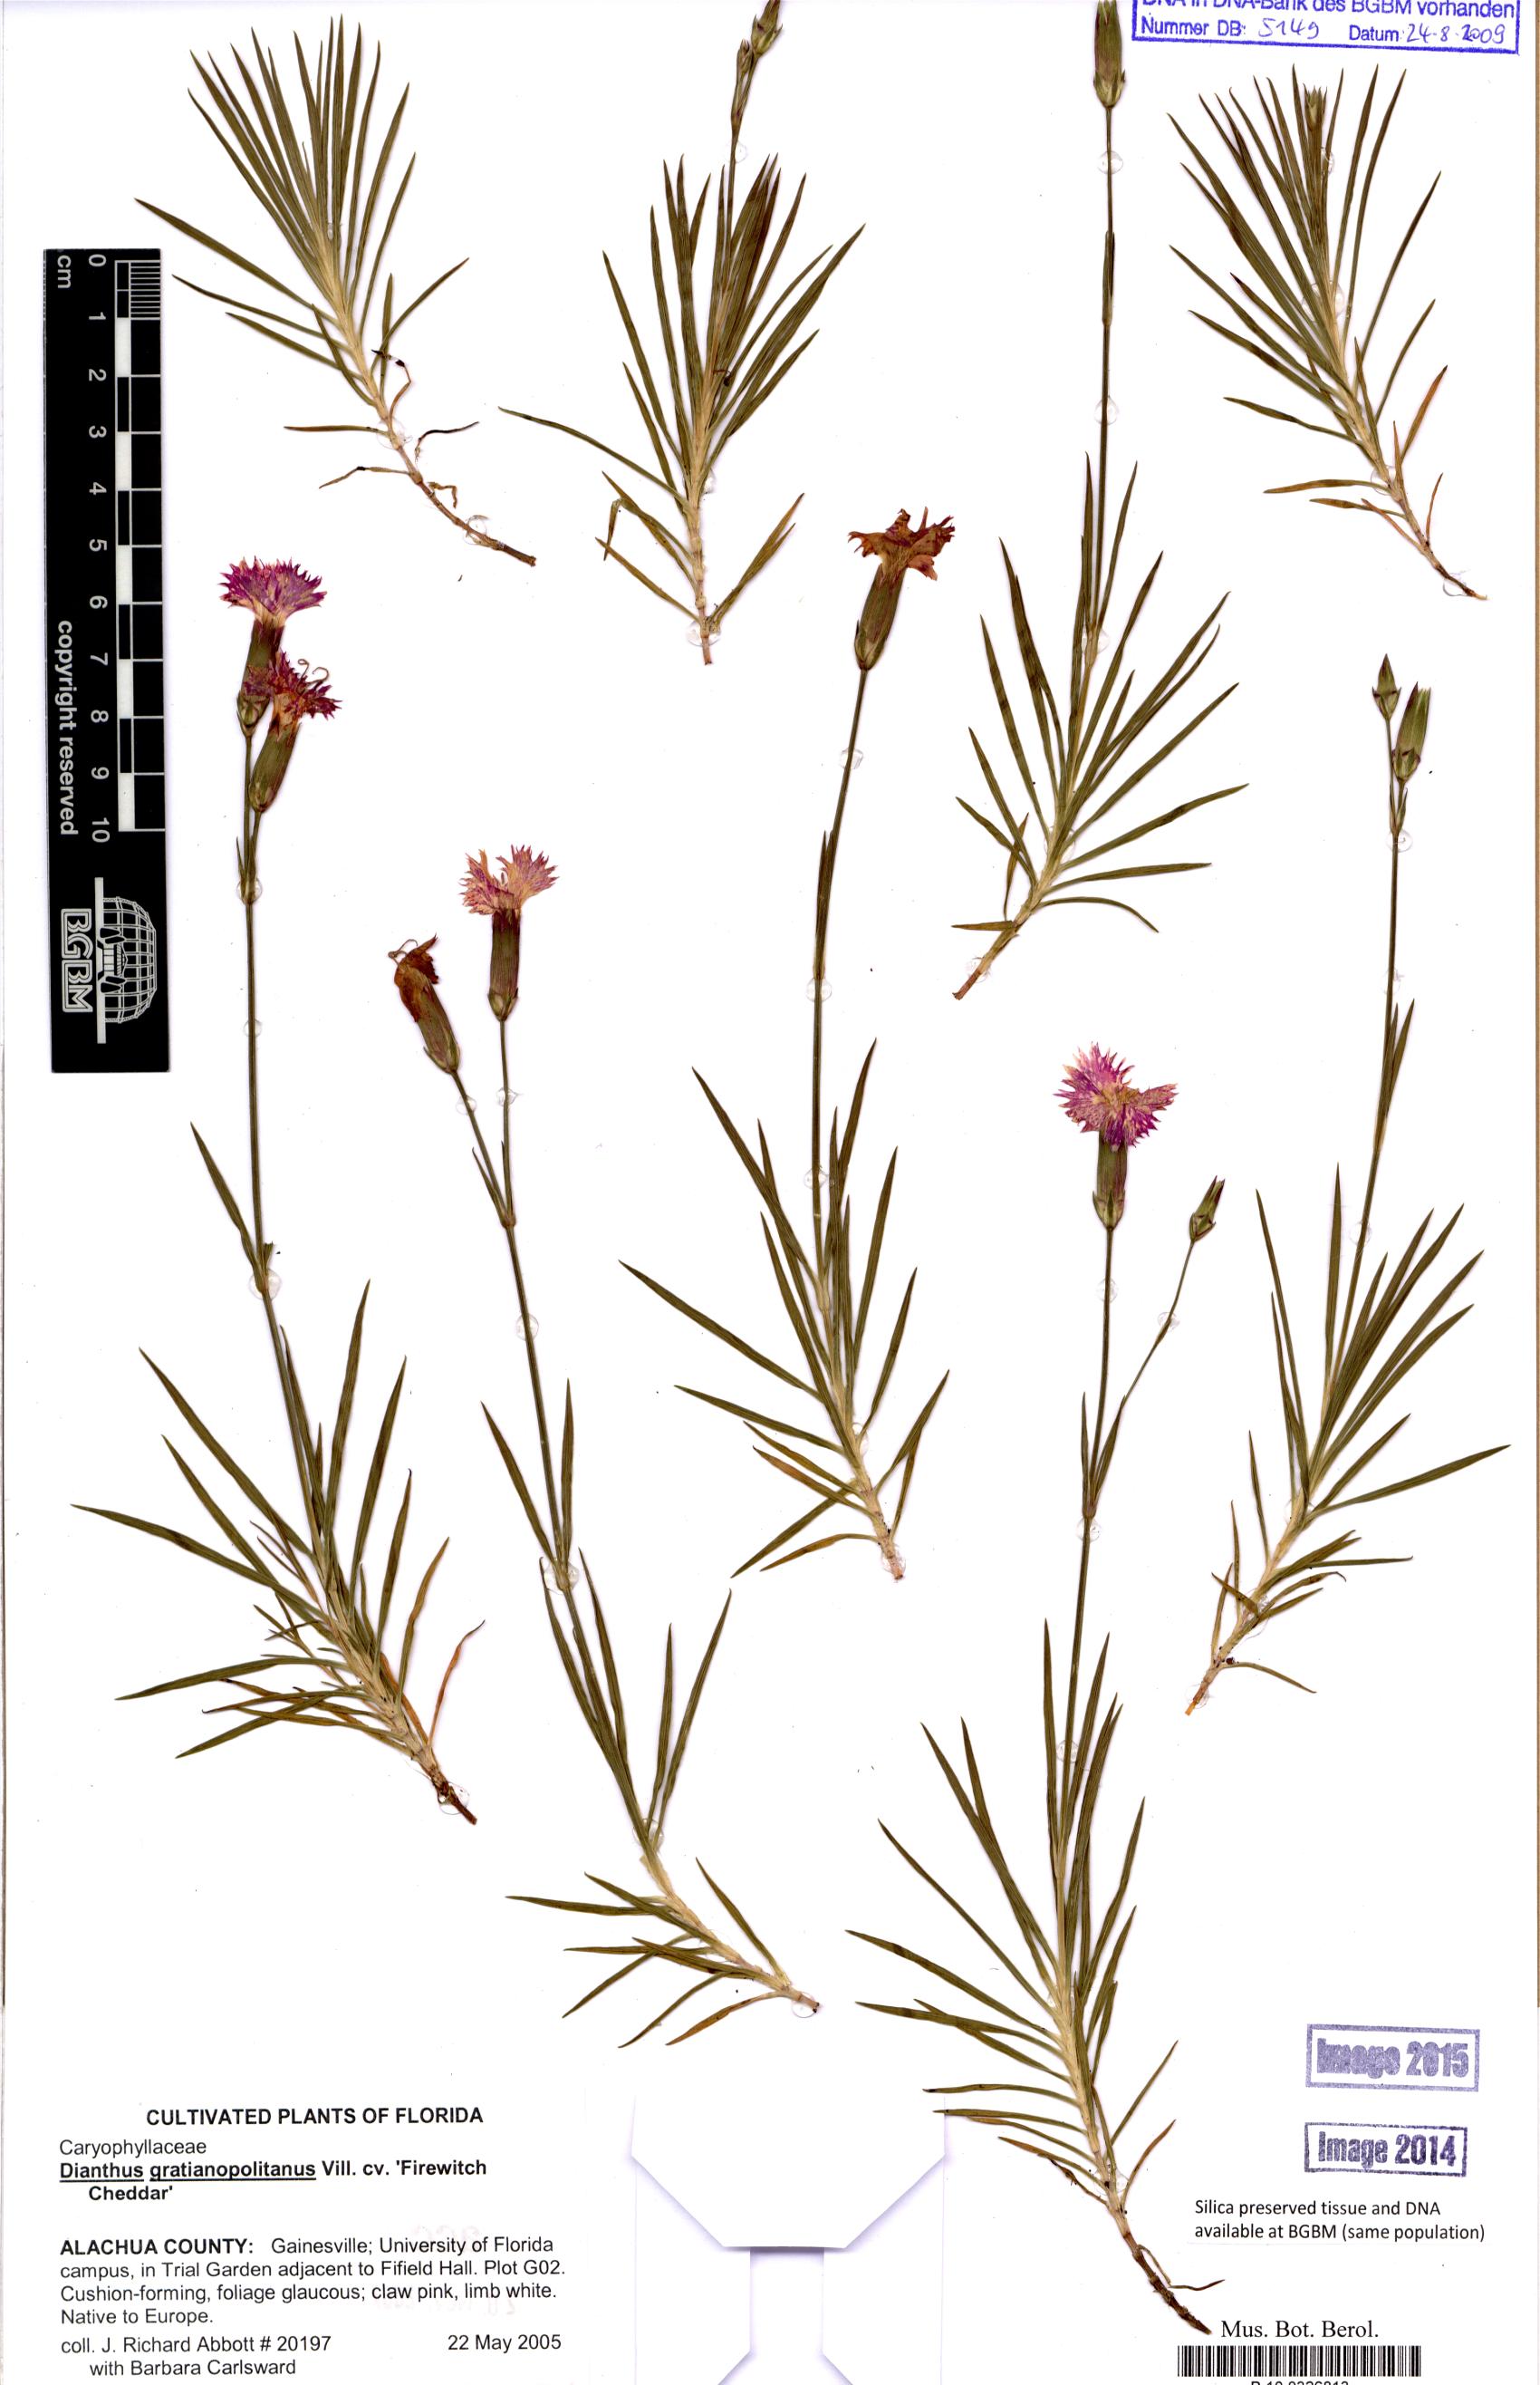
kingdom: Plantae
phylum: Tracheophyta
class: Magnoliopsida
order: Caryophyllales
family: Caryophyllaceae
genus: Dianthus
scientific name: Dianthus gratianopolitanus
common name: Cheddar pink
